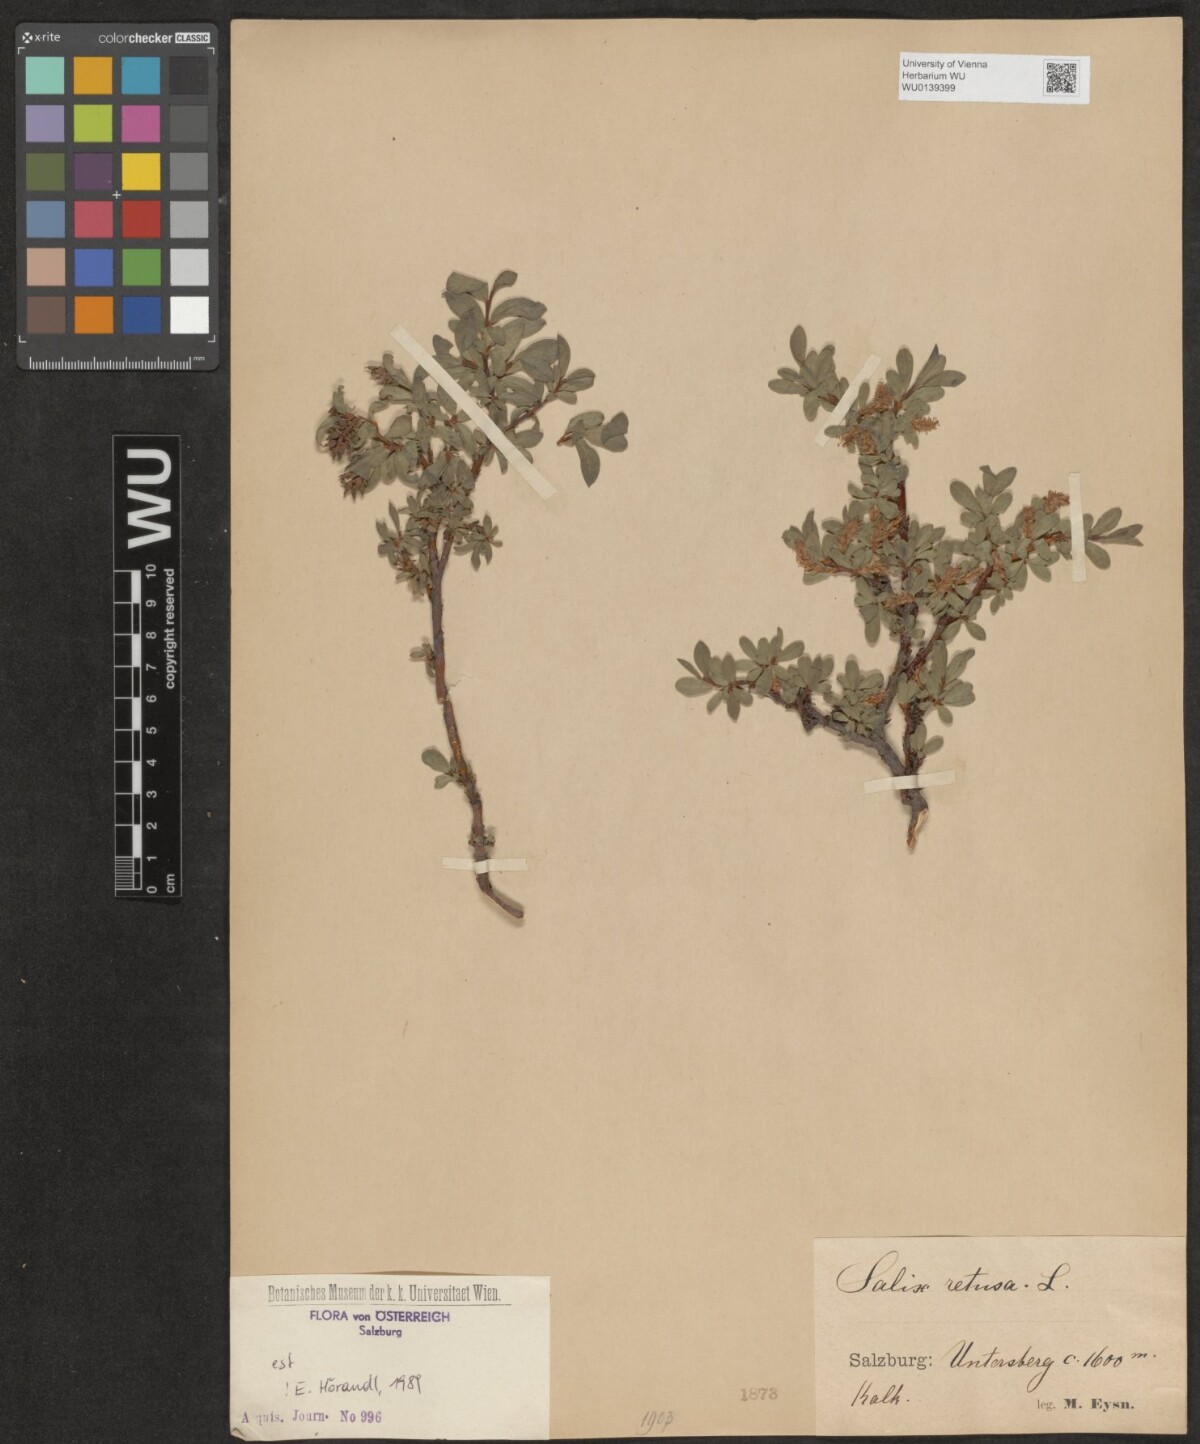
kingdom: Plantae
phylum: Tracheophyta
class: Magnoliopsida
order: Malpighiales
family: Salicaceae
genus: Salix
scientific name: Salix retusa
